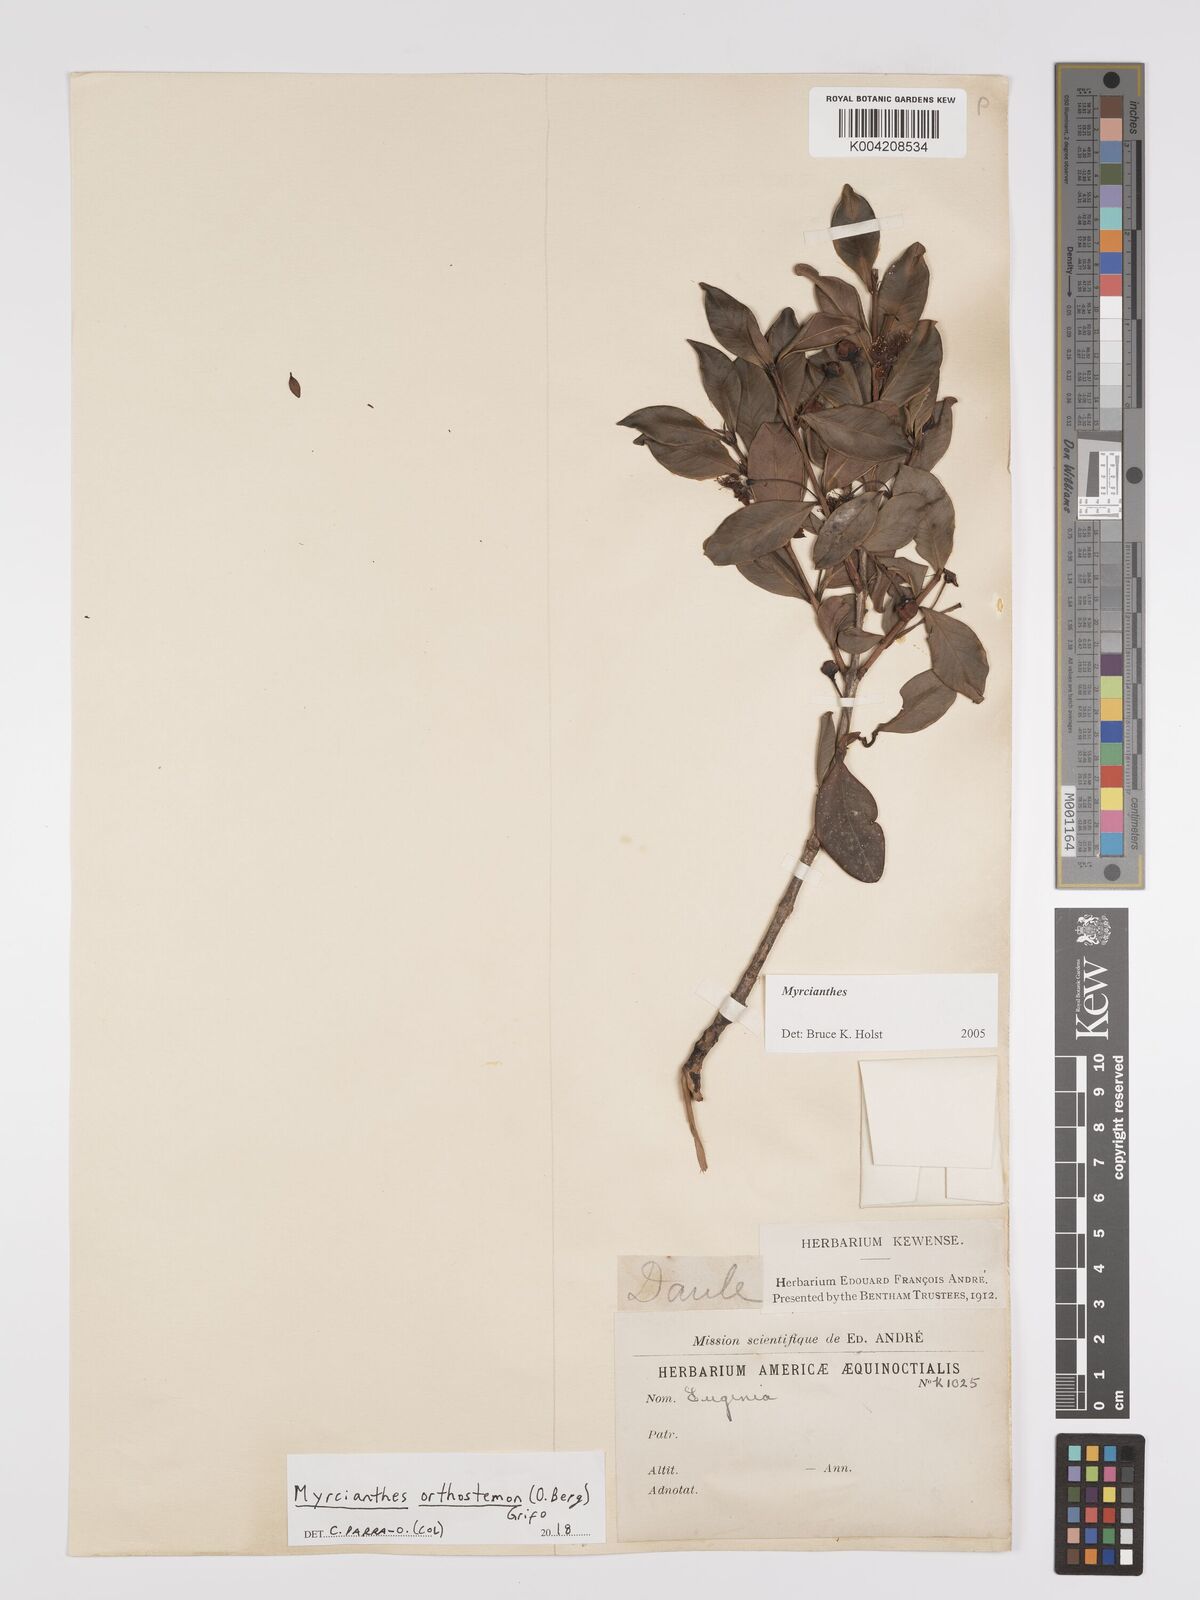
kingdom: Plantae
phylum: Tracheophyta
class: Magnoliopsida
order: Myrtales
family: Myrtaceae
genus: Myrcianthes
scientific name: Myrcianthes orthostemon
